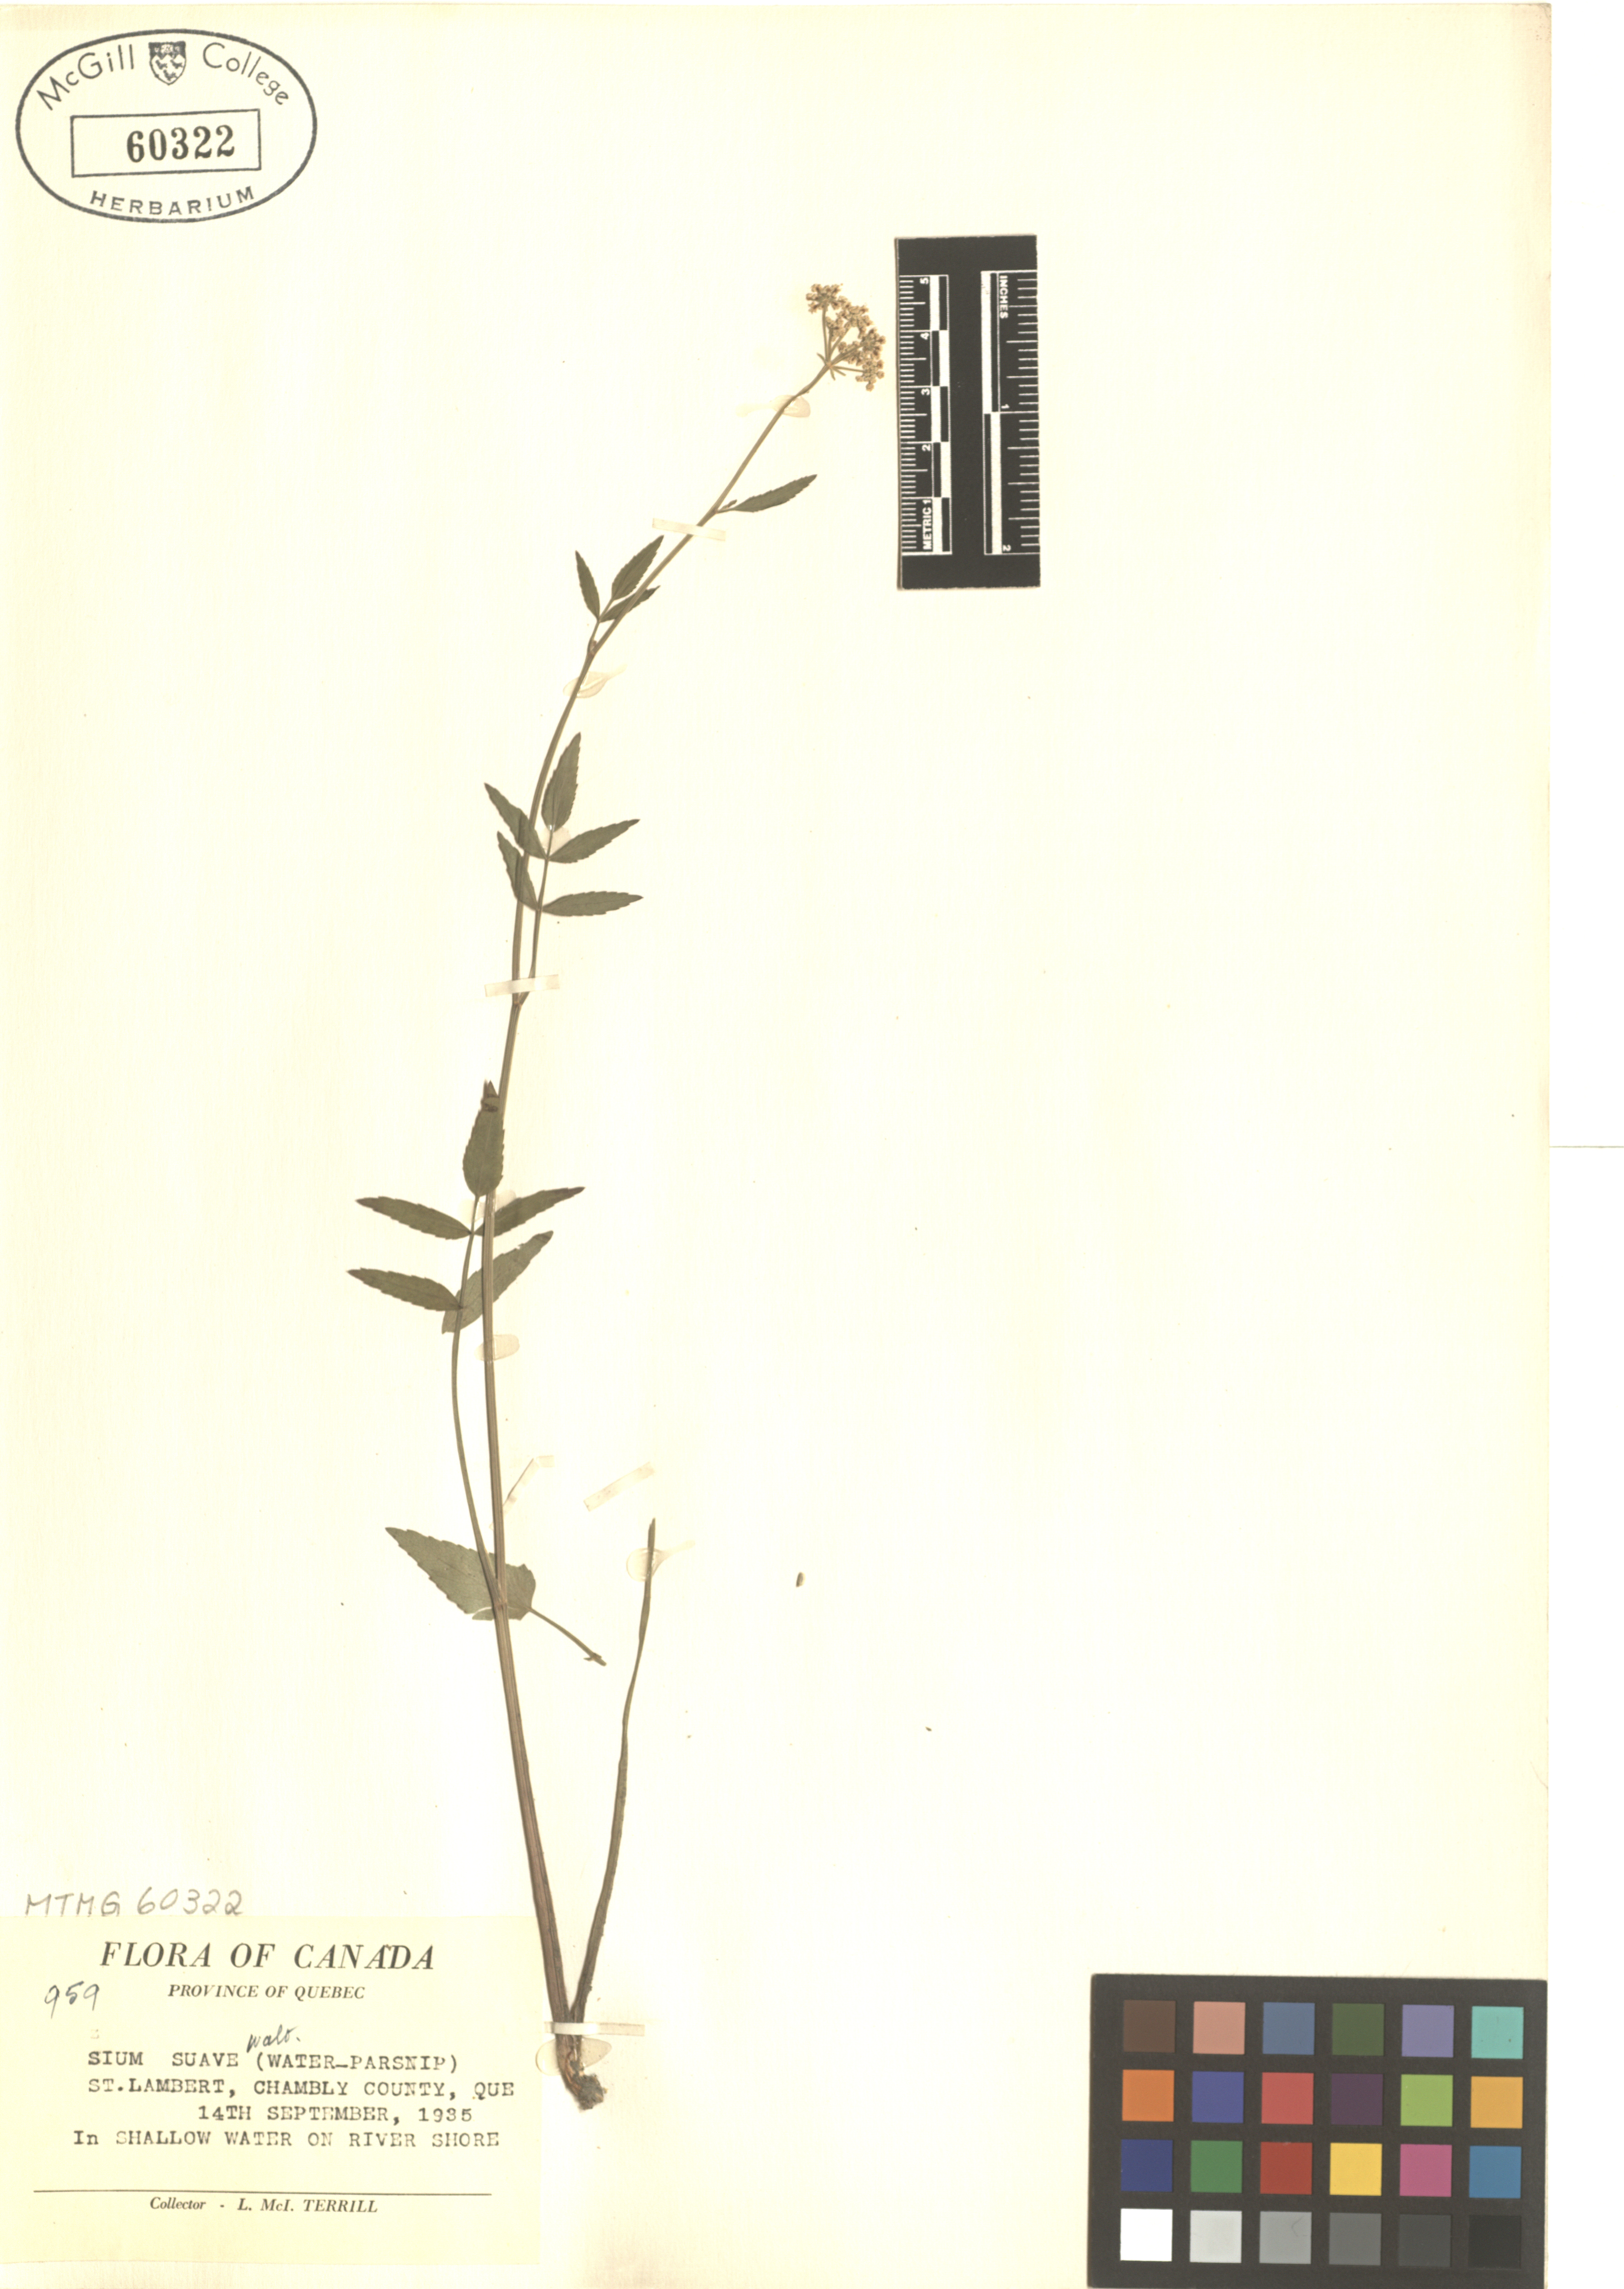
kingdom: Plantae
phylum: Tracheophyta
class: Magnoliopsida
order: Apiales
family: Apiaceae
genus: Sium
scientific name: Sium suave
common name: Hemlock water-parsnip
